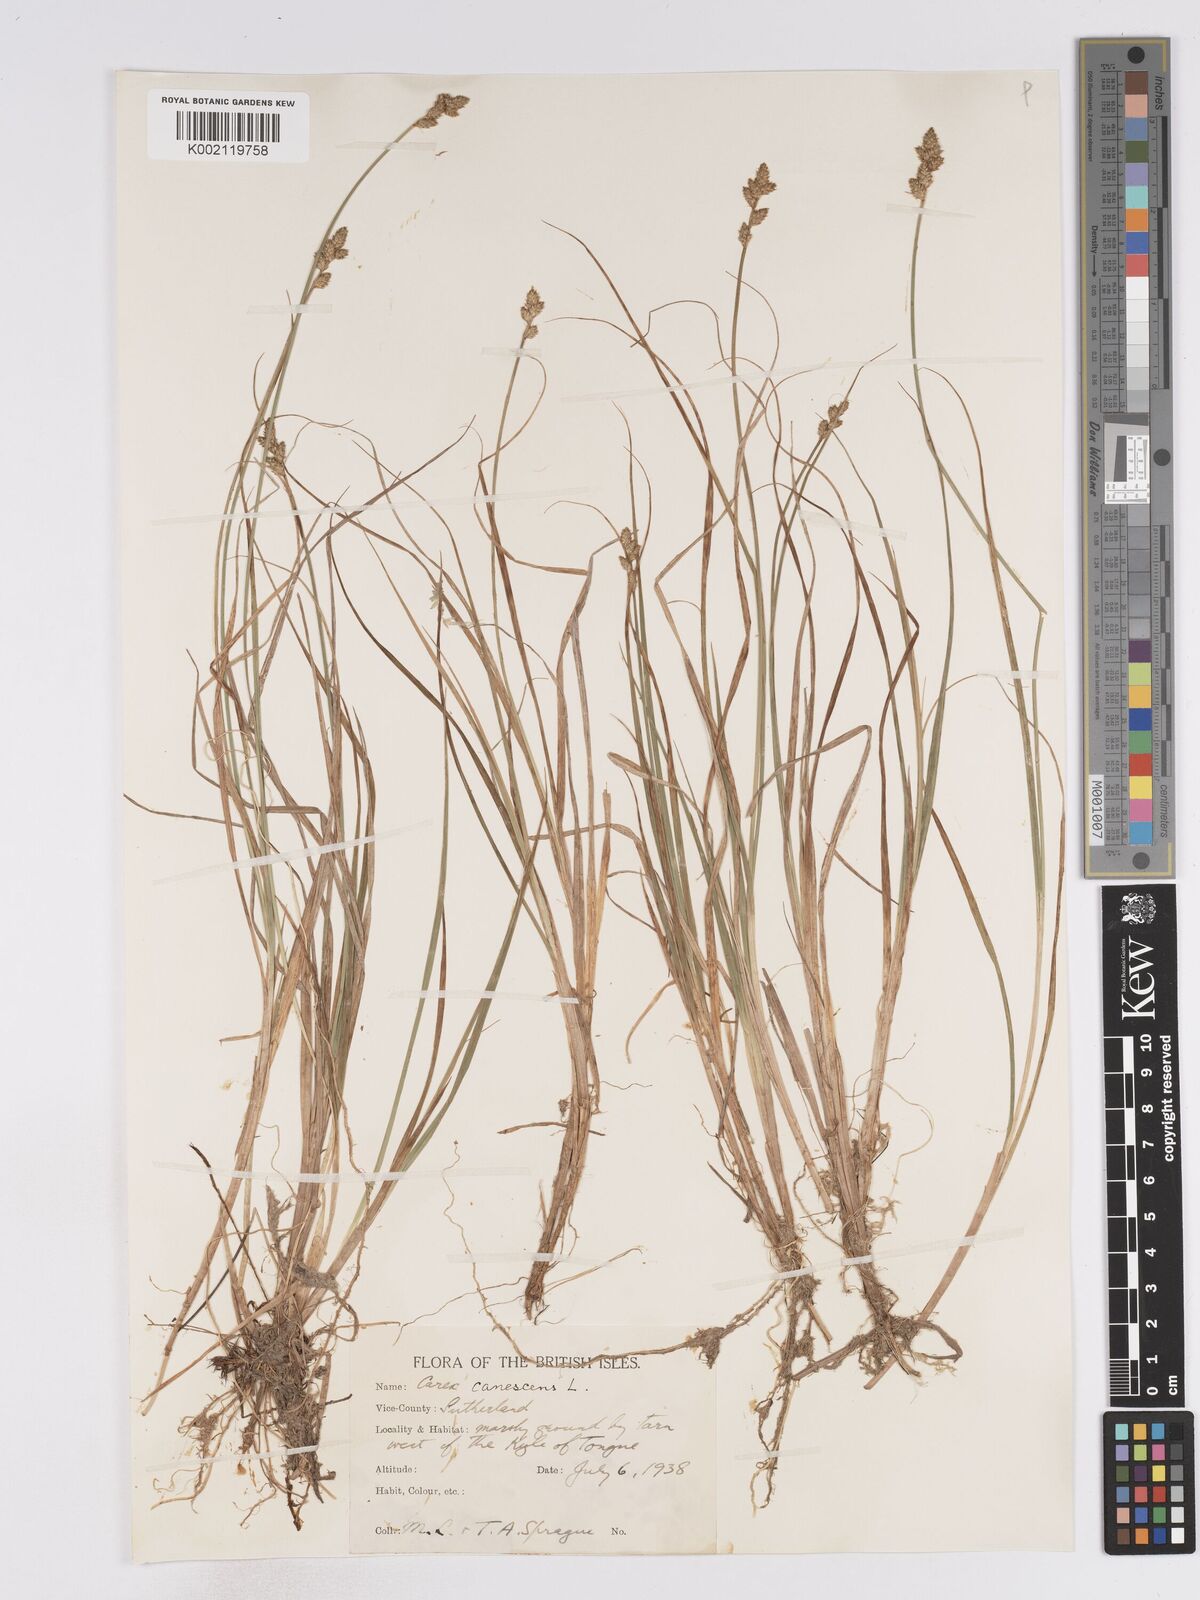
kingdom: Plantae
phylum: Tracheophyta
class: Liliopsida
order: Poales
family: Cyperaceae
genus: Carex
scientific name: Carex curta
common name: White sedge
